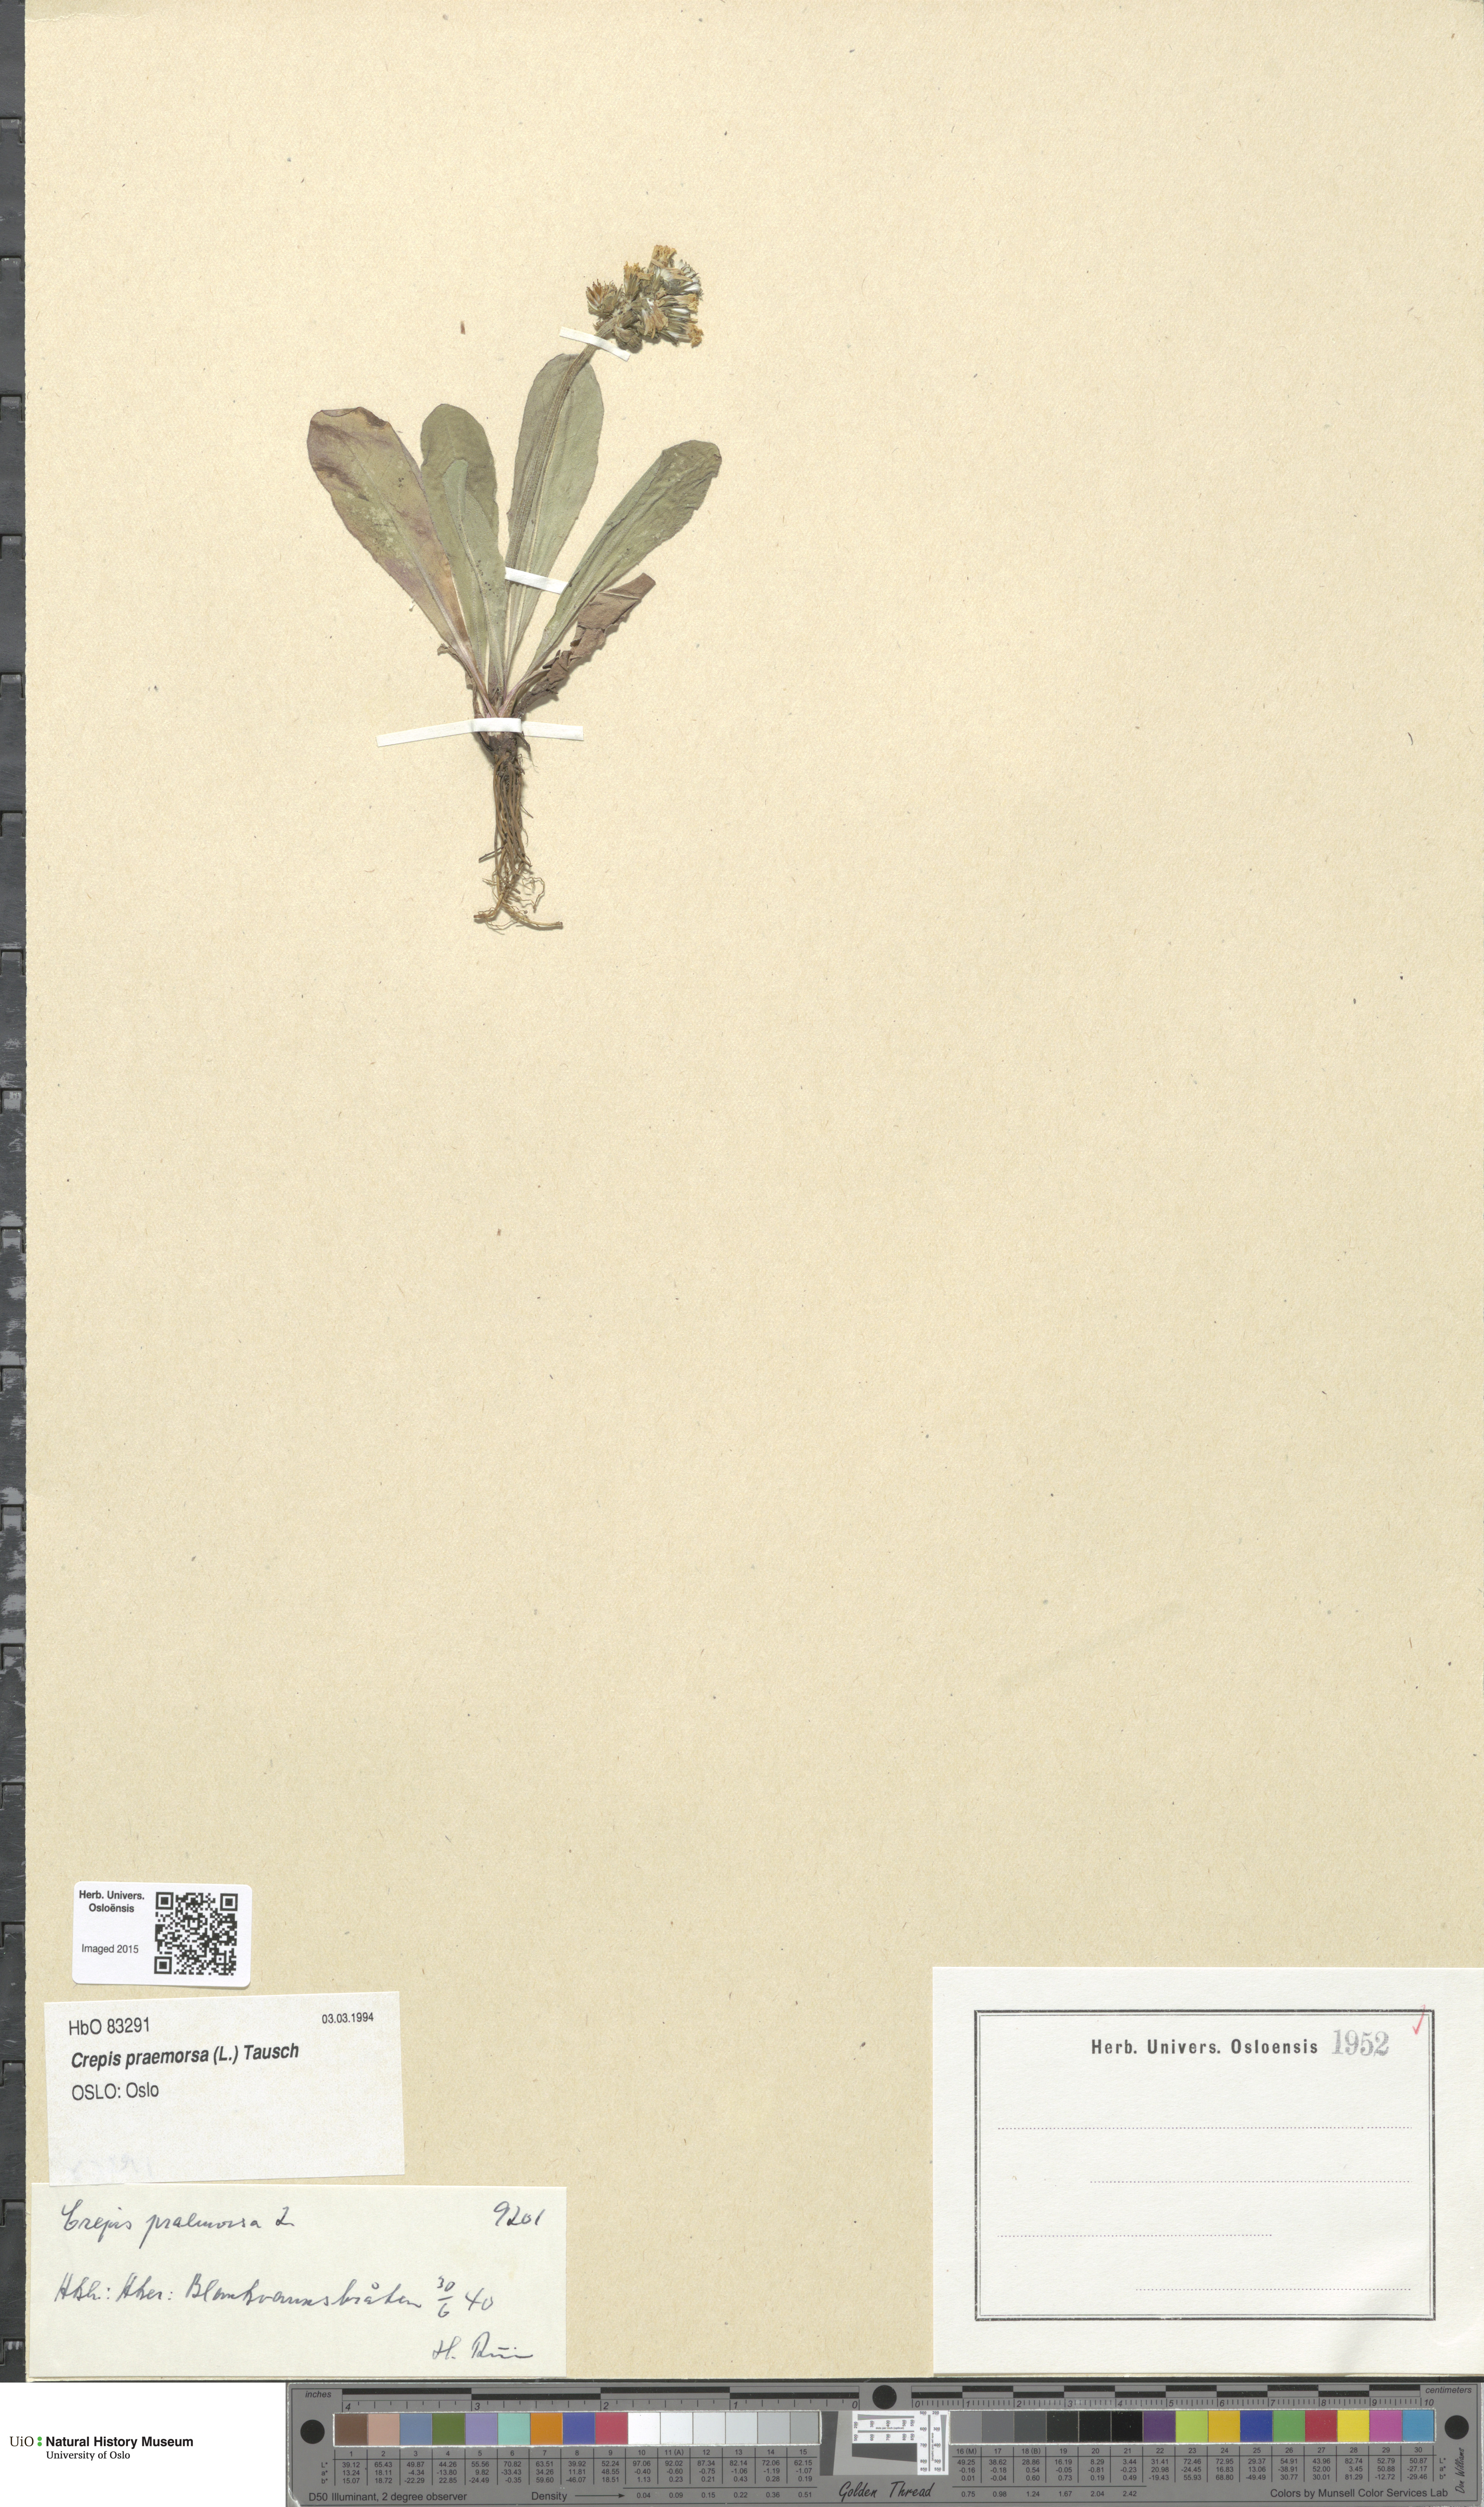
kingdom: Plantae
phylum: Tracheophyta
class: Magnoliopsida
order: Asterales
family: Asteraceae
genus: Crepis
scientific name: Crepis praemorsa
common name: Leafless hawk's-beard
